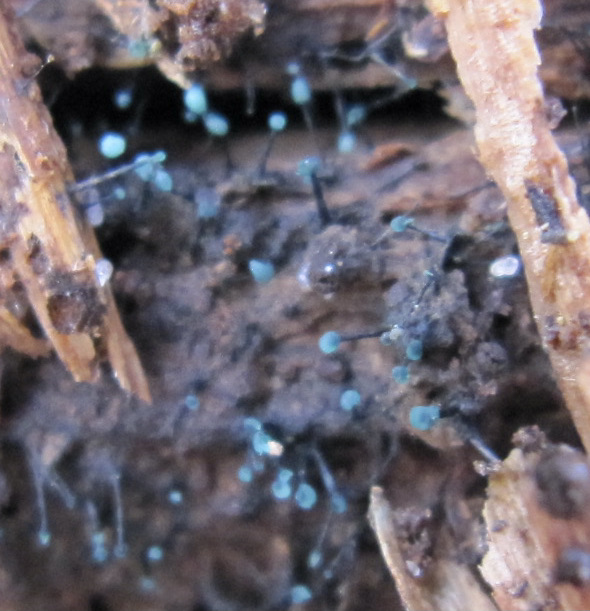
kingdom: Fungi
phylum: Ascomycota
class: Leotiomycetes
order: Leotiales
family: Tympanidaceae
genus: Dendrostilbella
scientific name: Dendrostilbella smaragdina
